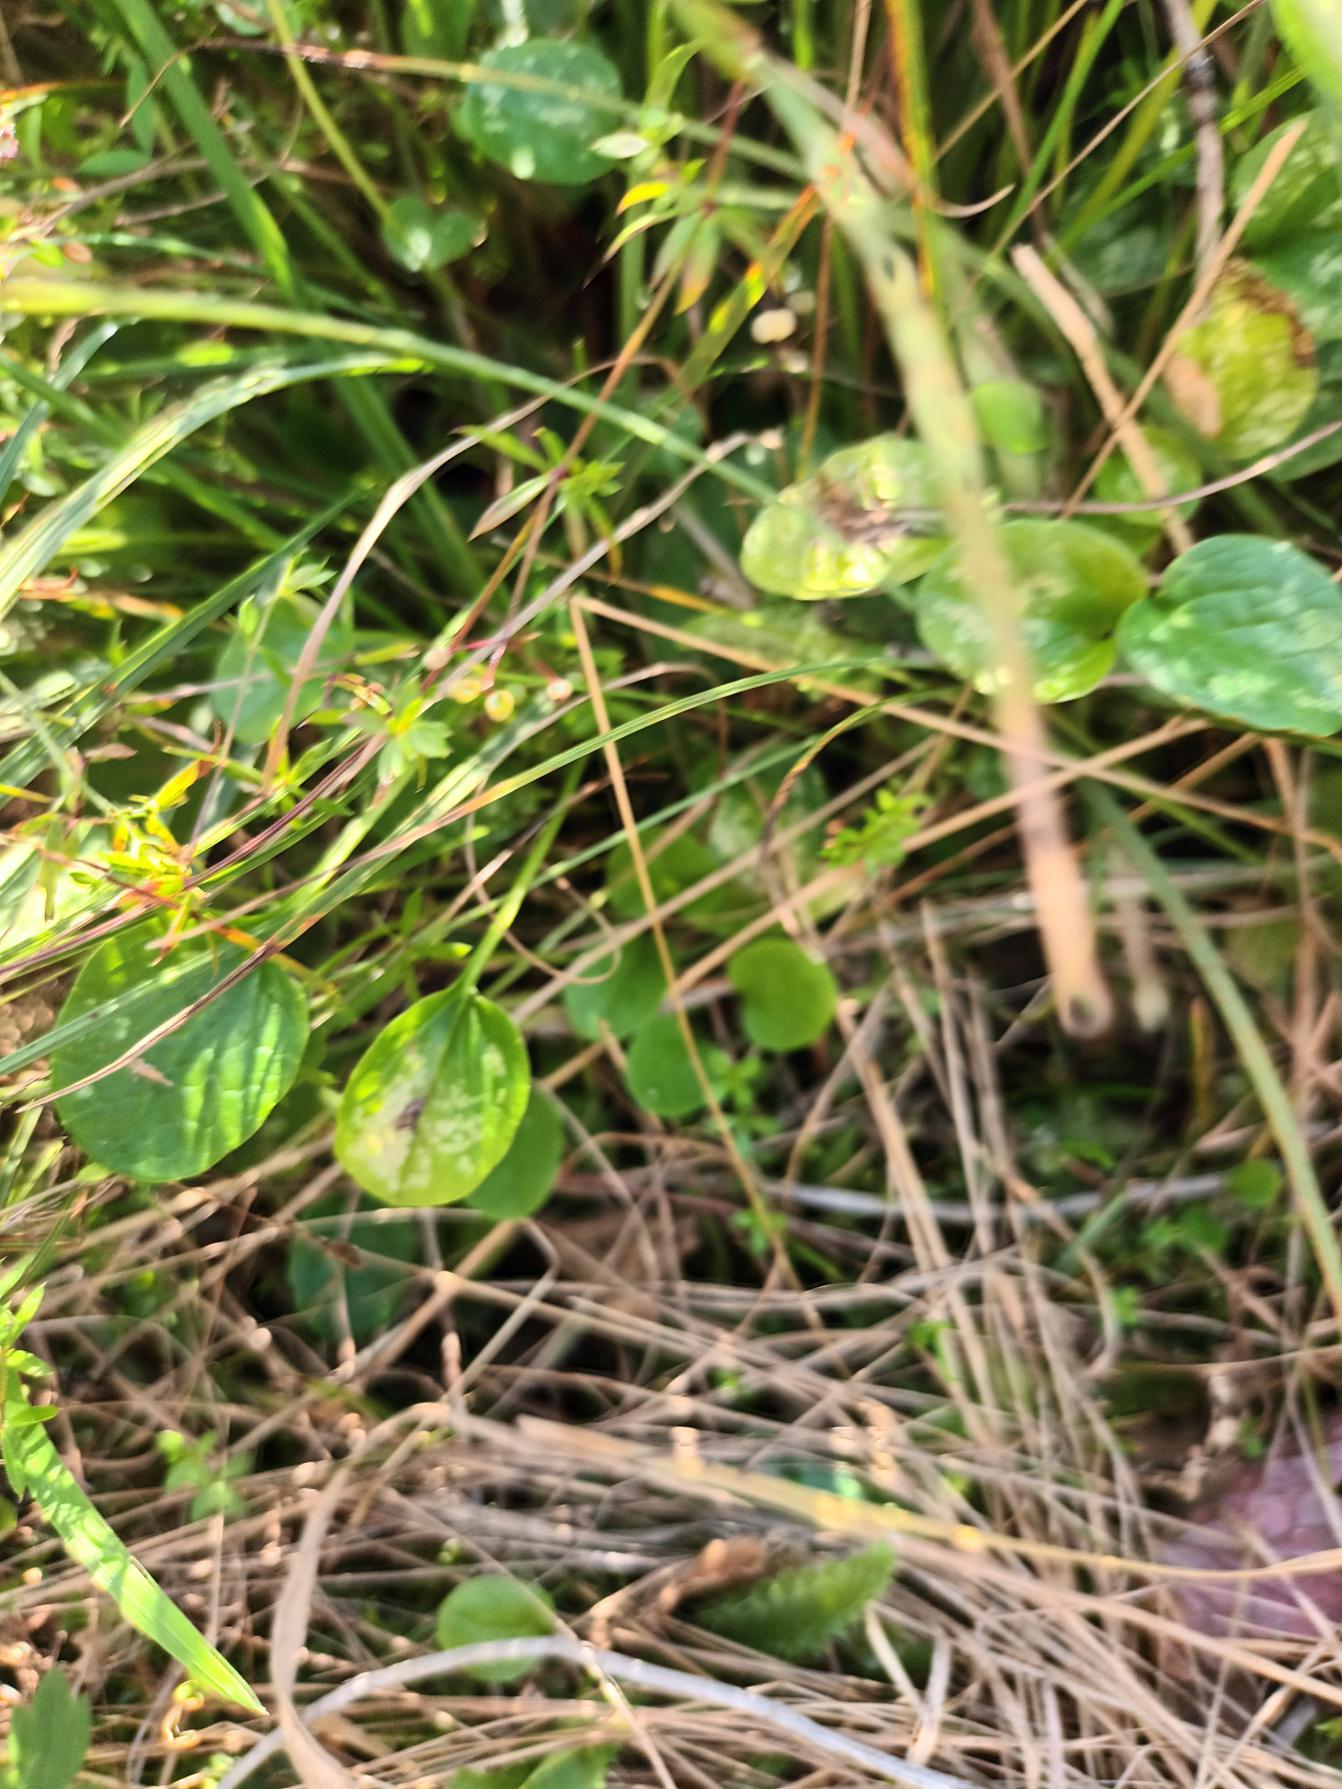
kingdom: Plantae
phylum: Tracheophyta
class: Magnoliopsida
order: Celastrales
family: Parnassiaceae
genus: Parnassia
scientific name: Parnassia palustris
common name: Leverurt
